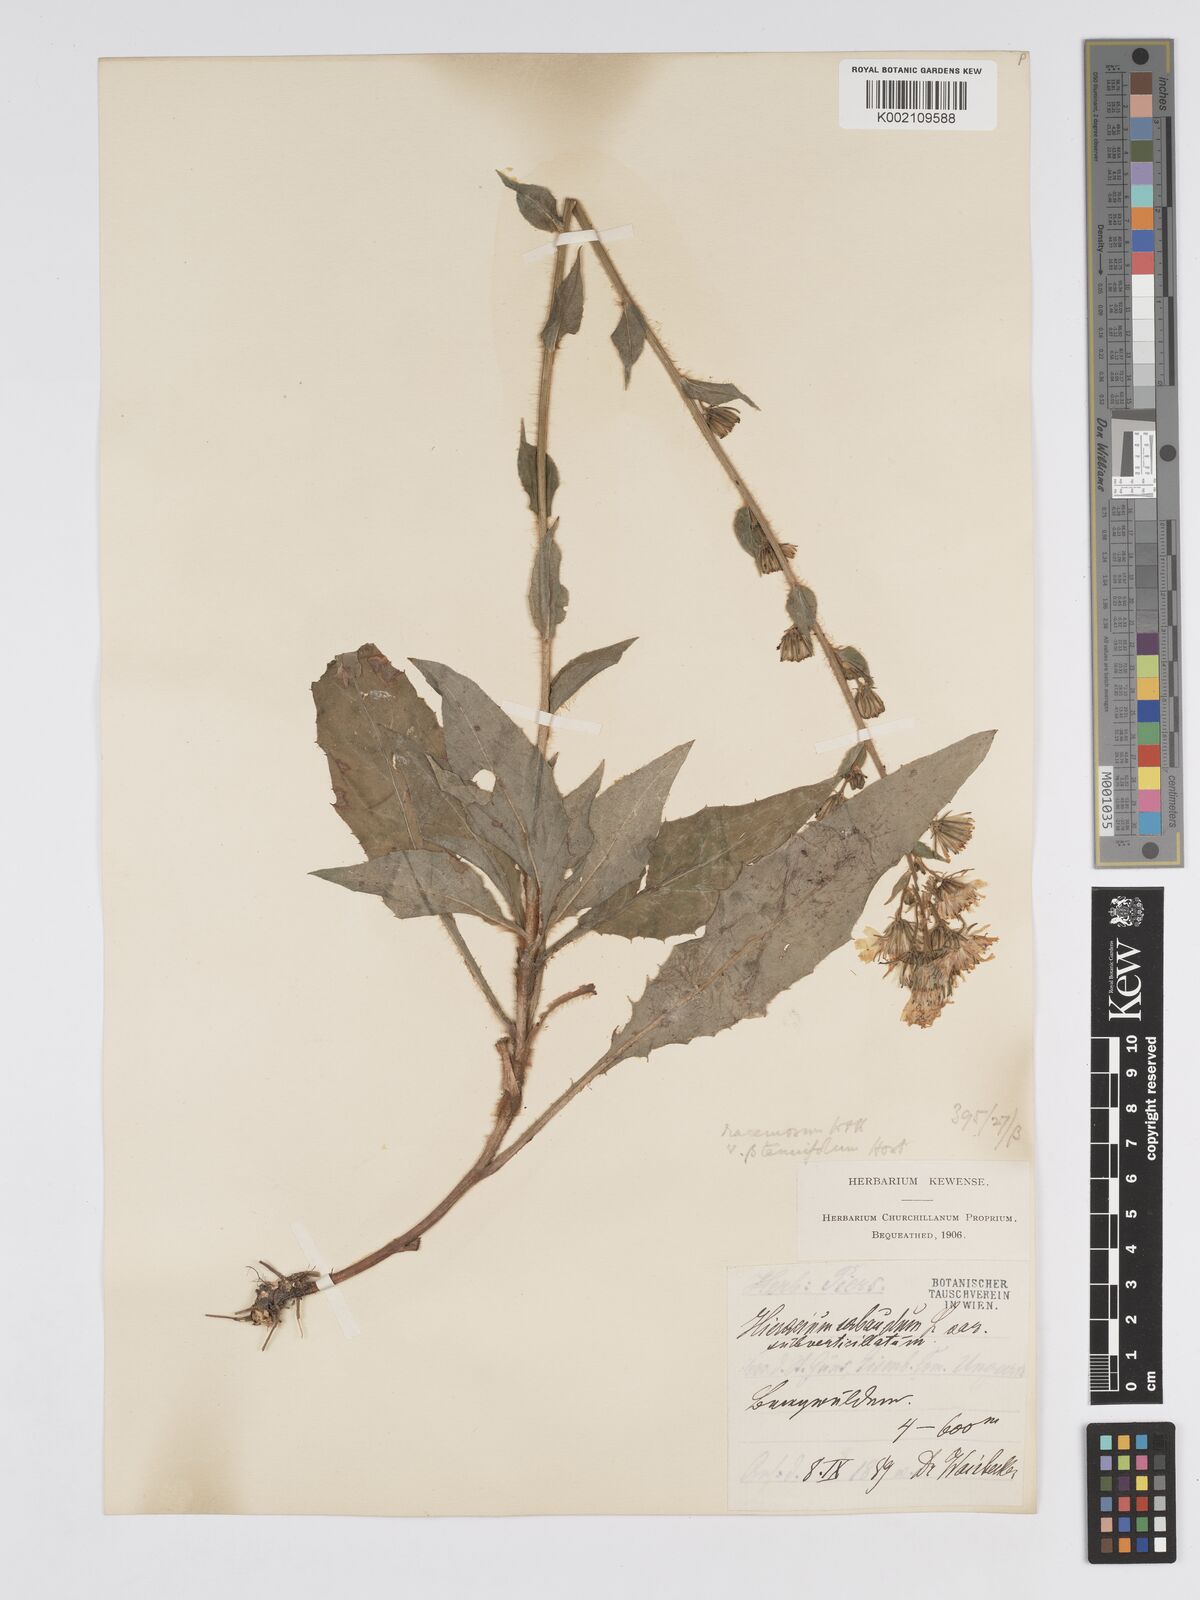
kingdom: Plantae
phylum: Tracheophyta
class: Magnoliopsida
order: Asterales
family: Asteraceae
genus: Hieracium
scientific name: Hieracium racemosum
